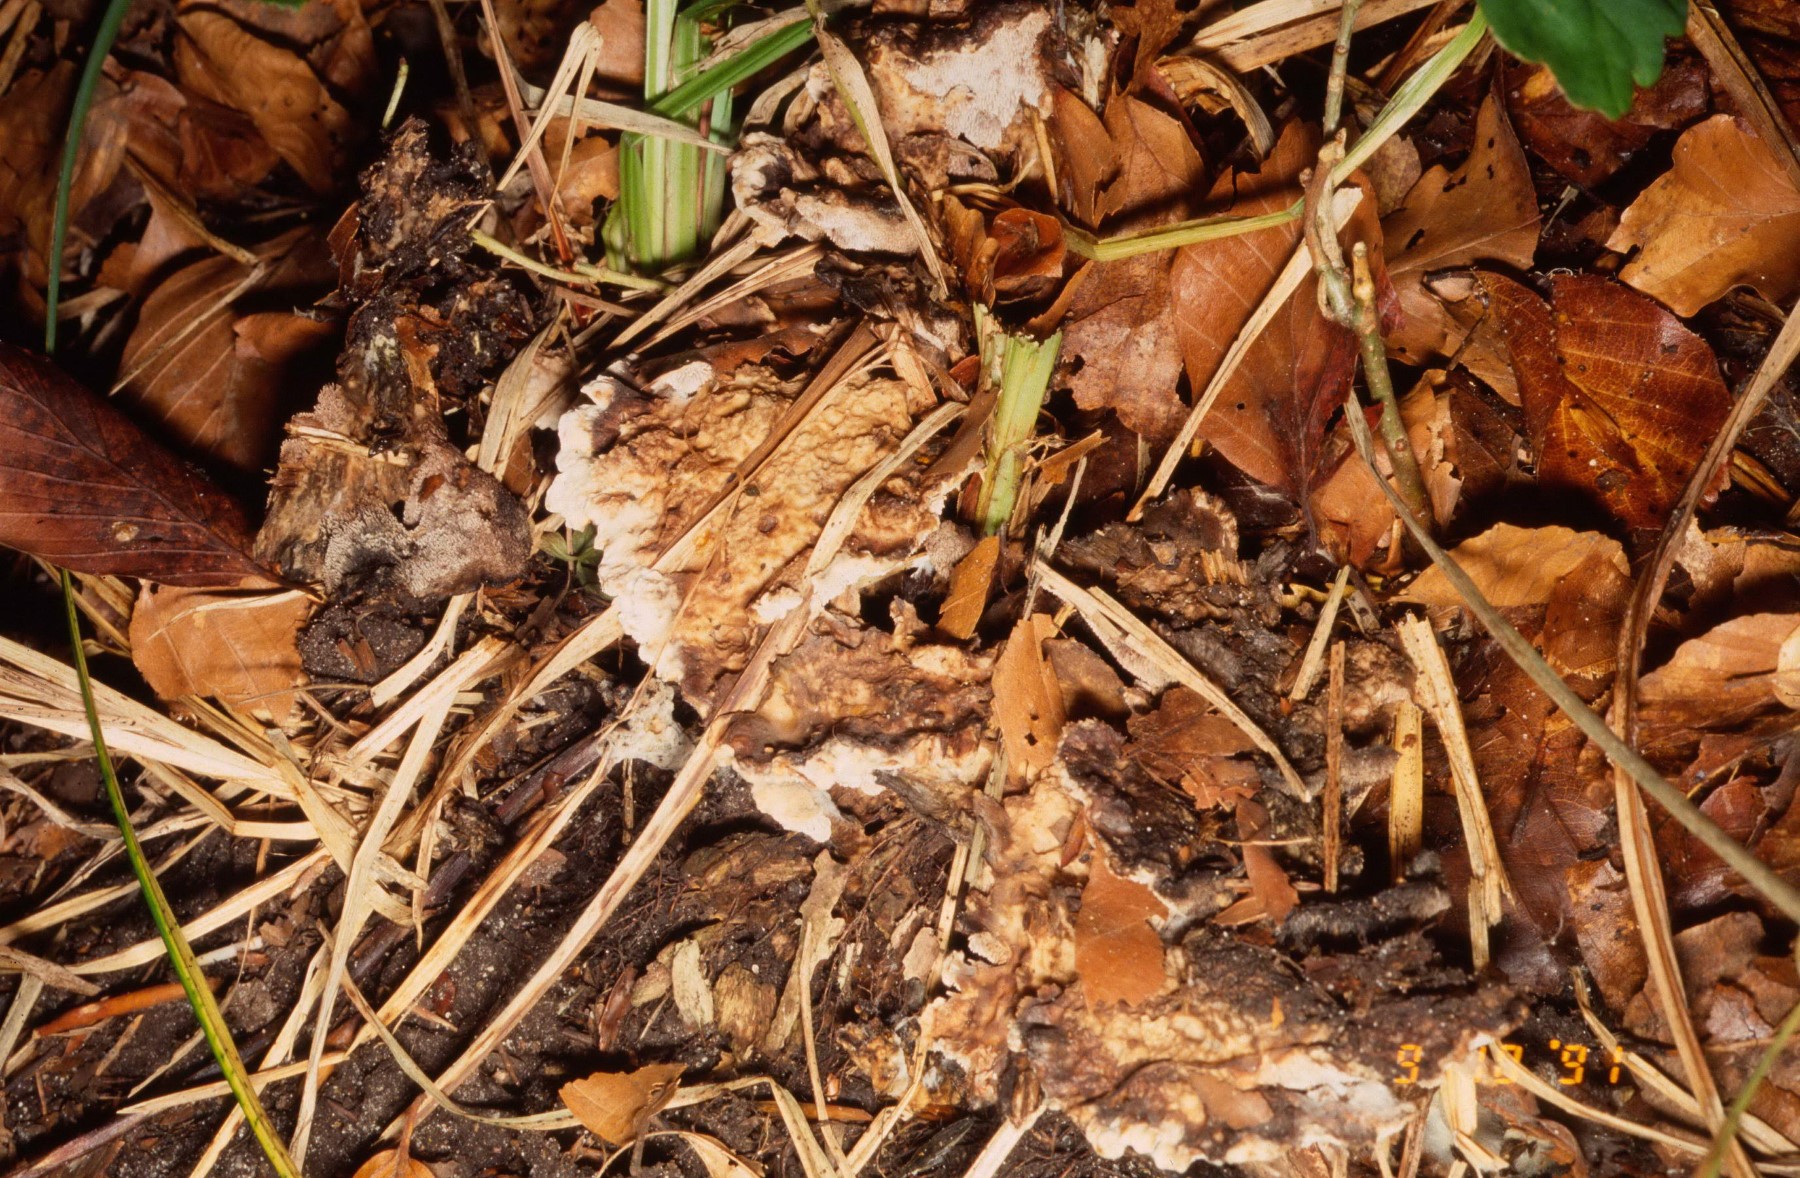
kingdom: Fungi
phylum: Basidiomycota
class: Agaricomycetes
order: Thelephorales
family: Thelephoraceae
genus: Phellodon
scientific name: Phellodon tomentosus
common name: vellugtende duftpigsvamp
